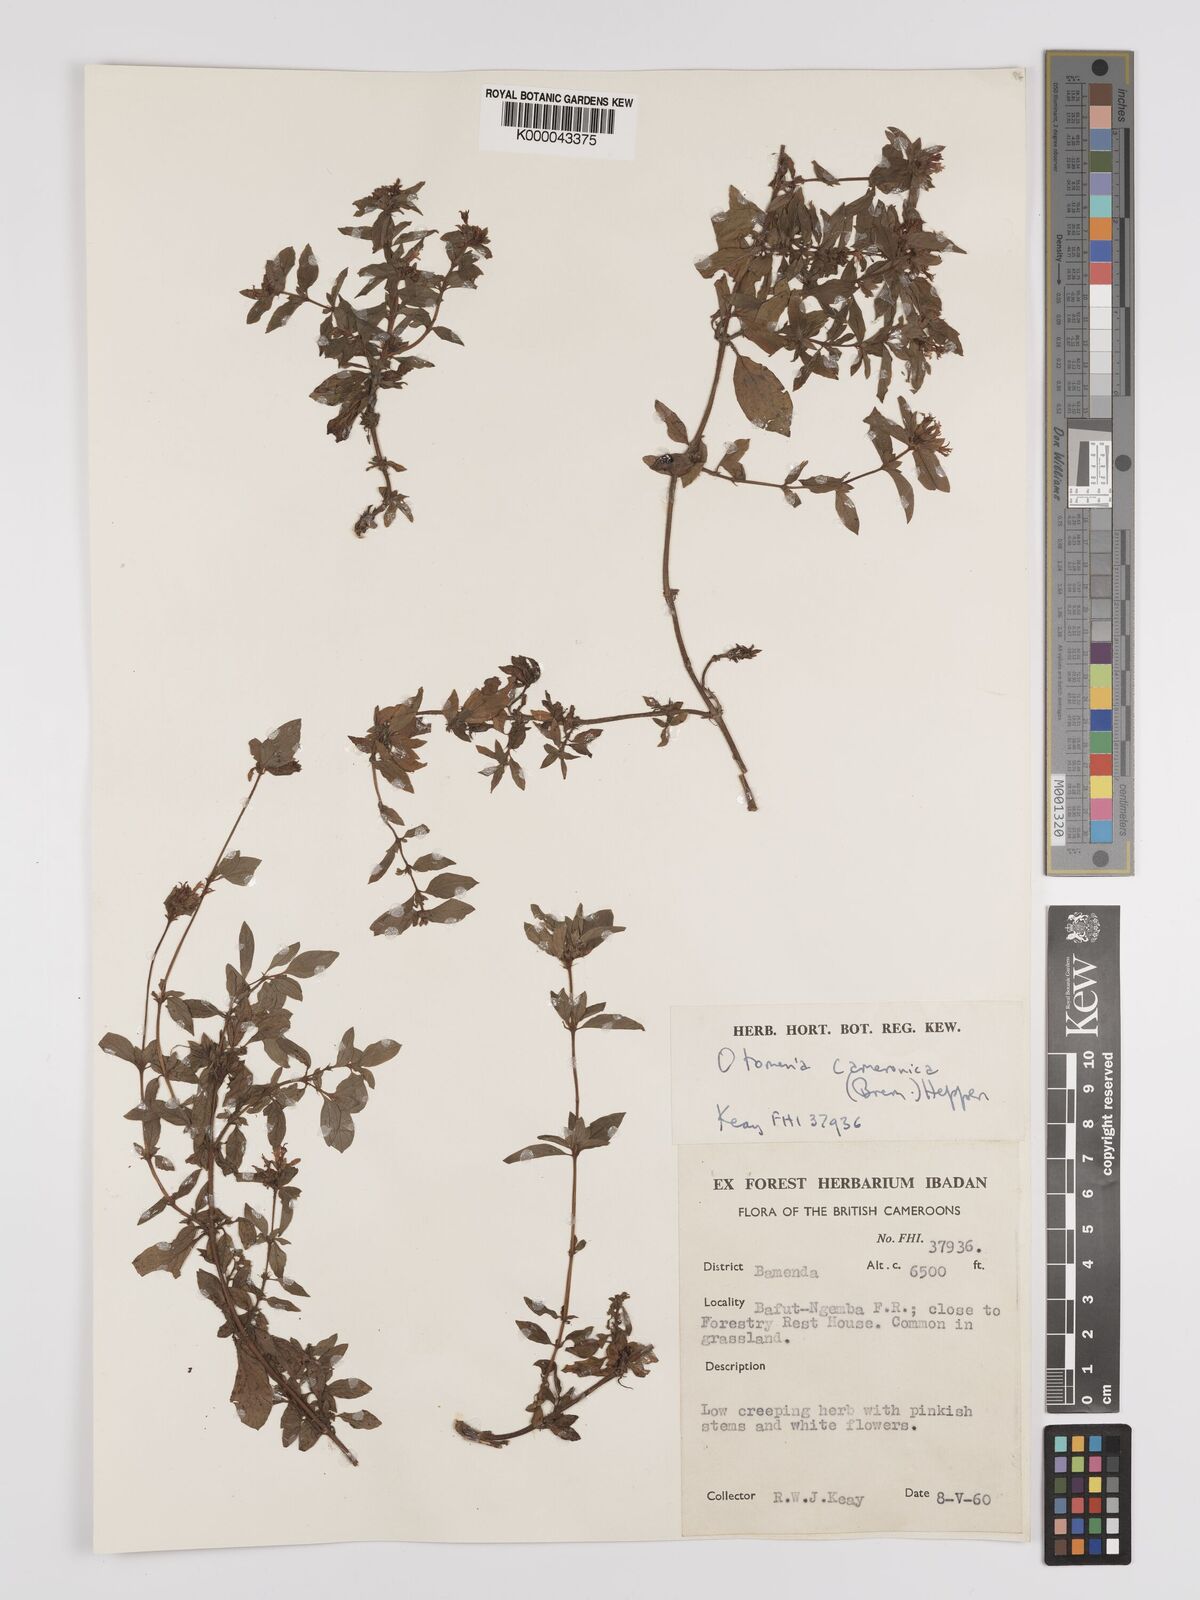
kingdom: Plantae
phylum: Tracheophyta
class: Magnoliopsida
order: Gentianales
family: Rubiaceae
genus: Otomeria
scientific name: Otomeria cameronica
